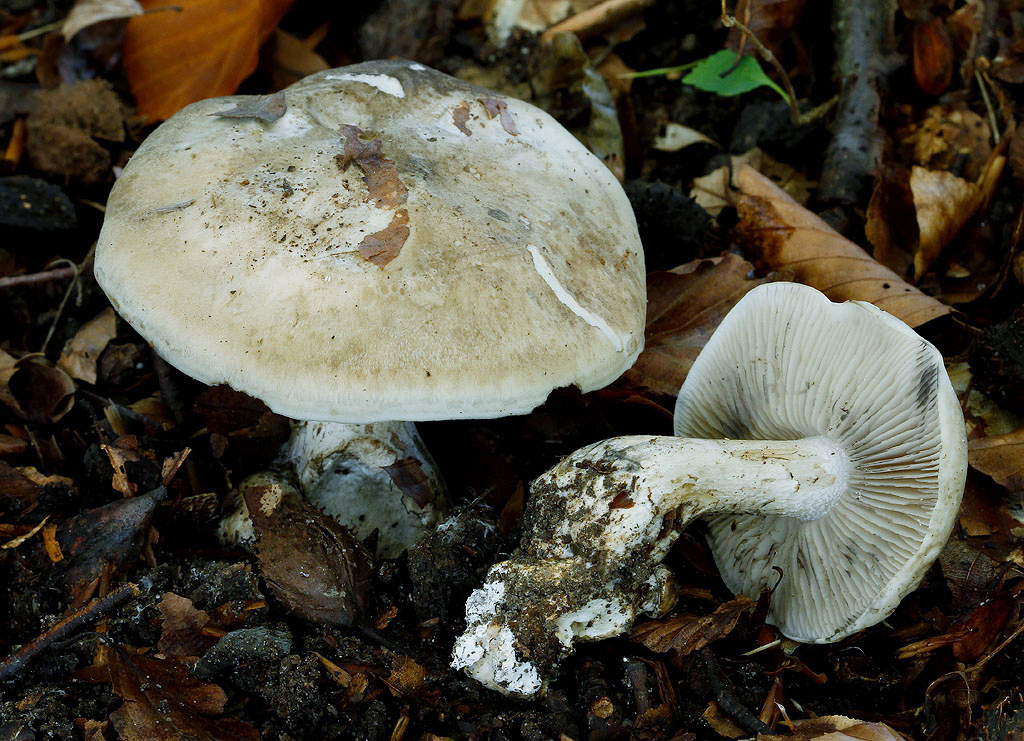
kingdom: Fungi
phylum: Basidiomycota
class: Agaricomycetes
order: Agaricales
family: Lyophyllaceae
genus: Lyophyllum
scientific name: Lyophyllum eustygium
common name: tykbladet gråblad
